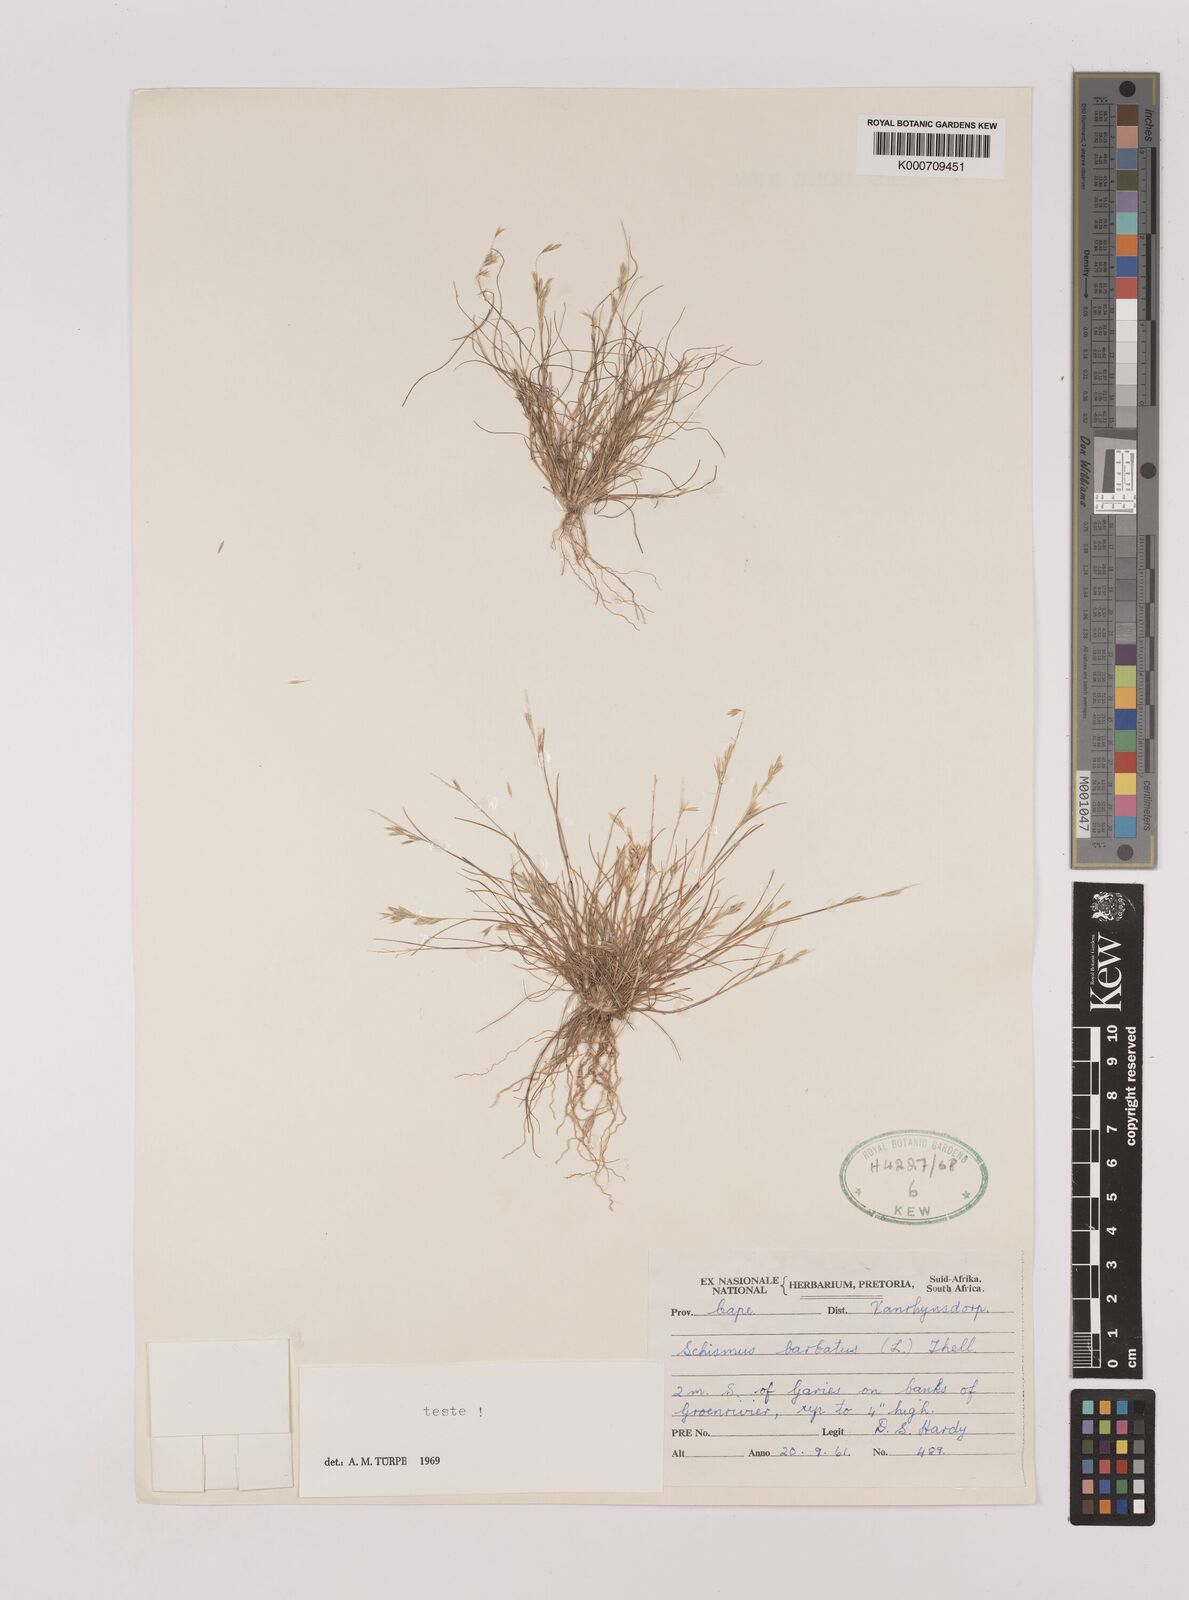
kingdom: Plantae
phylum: Tracheophyta
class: Liliopsida
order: Poales
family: Poaceae
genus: Schismus
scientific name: Schismus barbatus
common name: Kelch-grass
